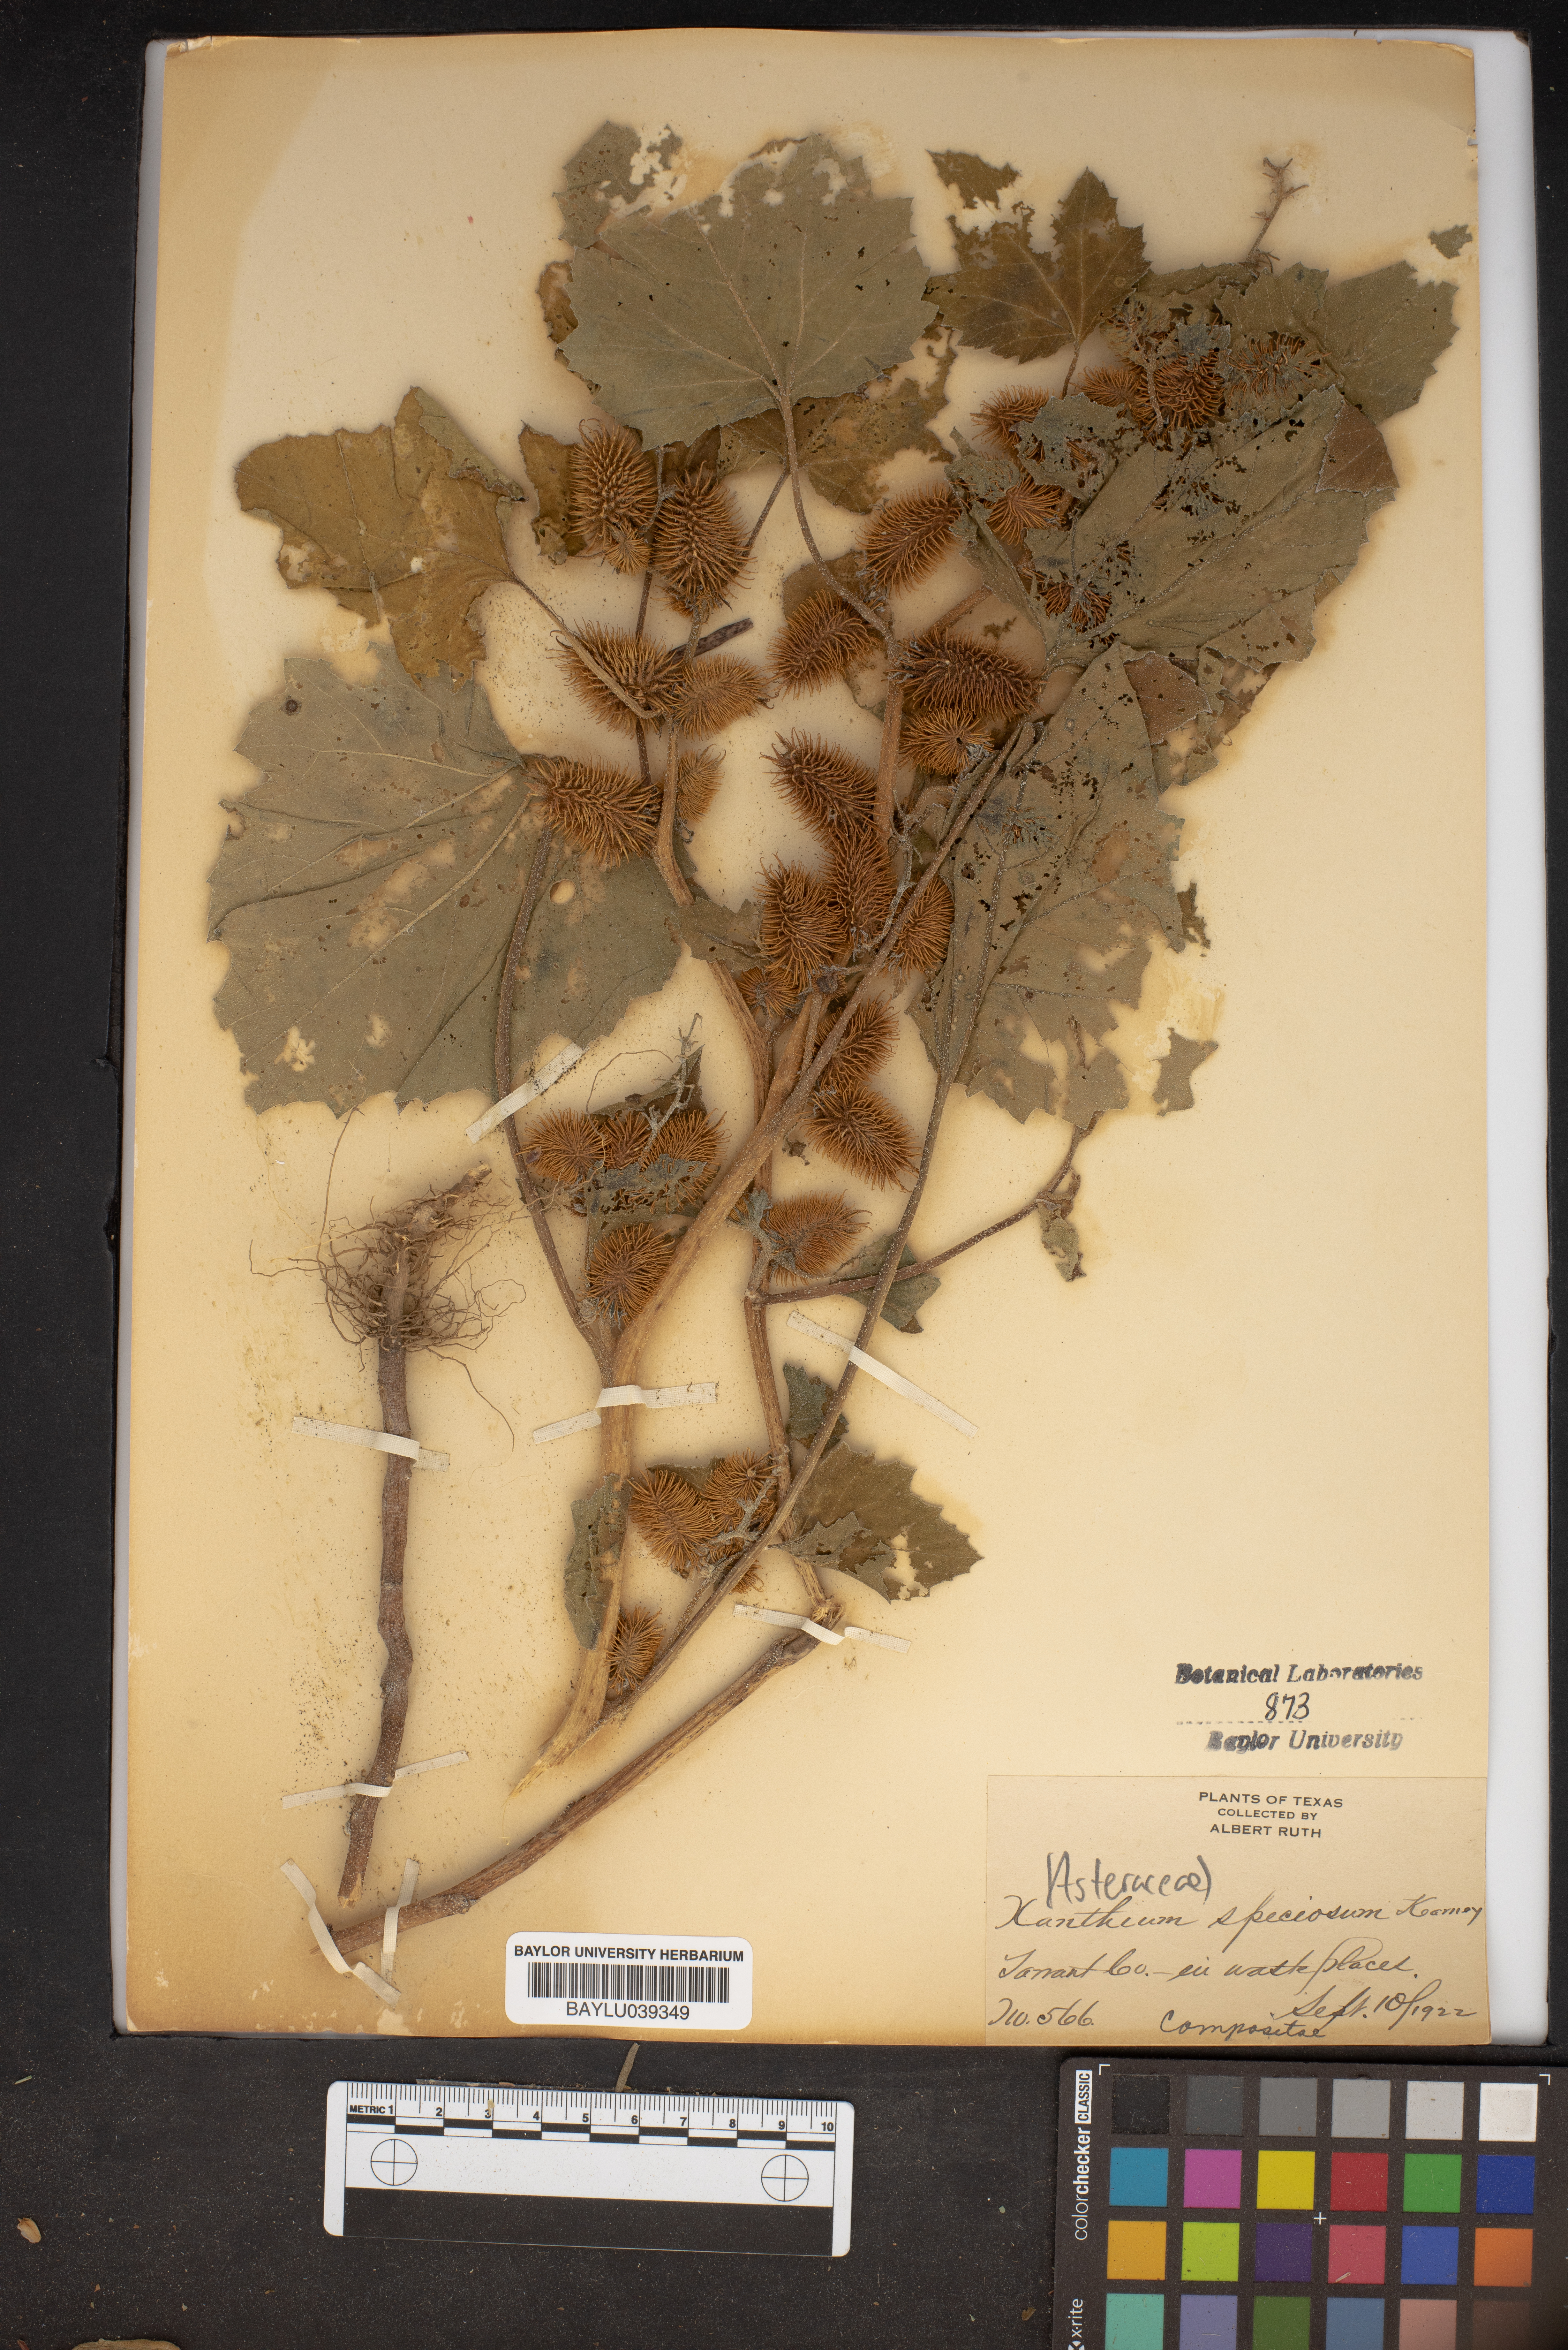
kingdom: Plantae
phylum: Tracheophyta
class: Magnoliopsida
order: Asterales
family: Asteraceae
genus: Xanthium
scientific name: Xanthium orientale
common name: Californian burr
